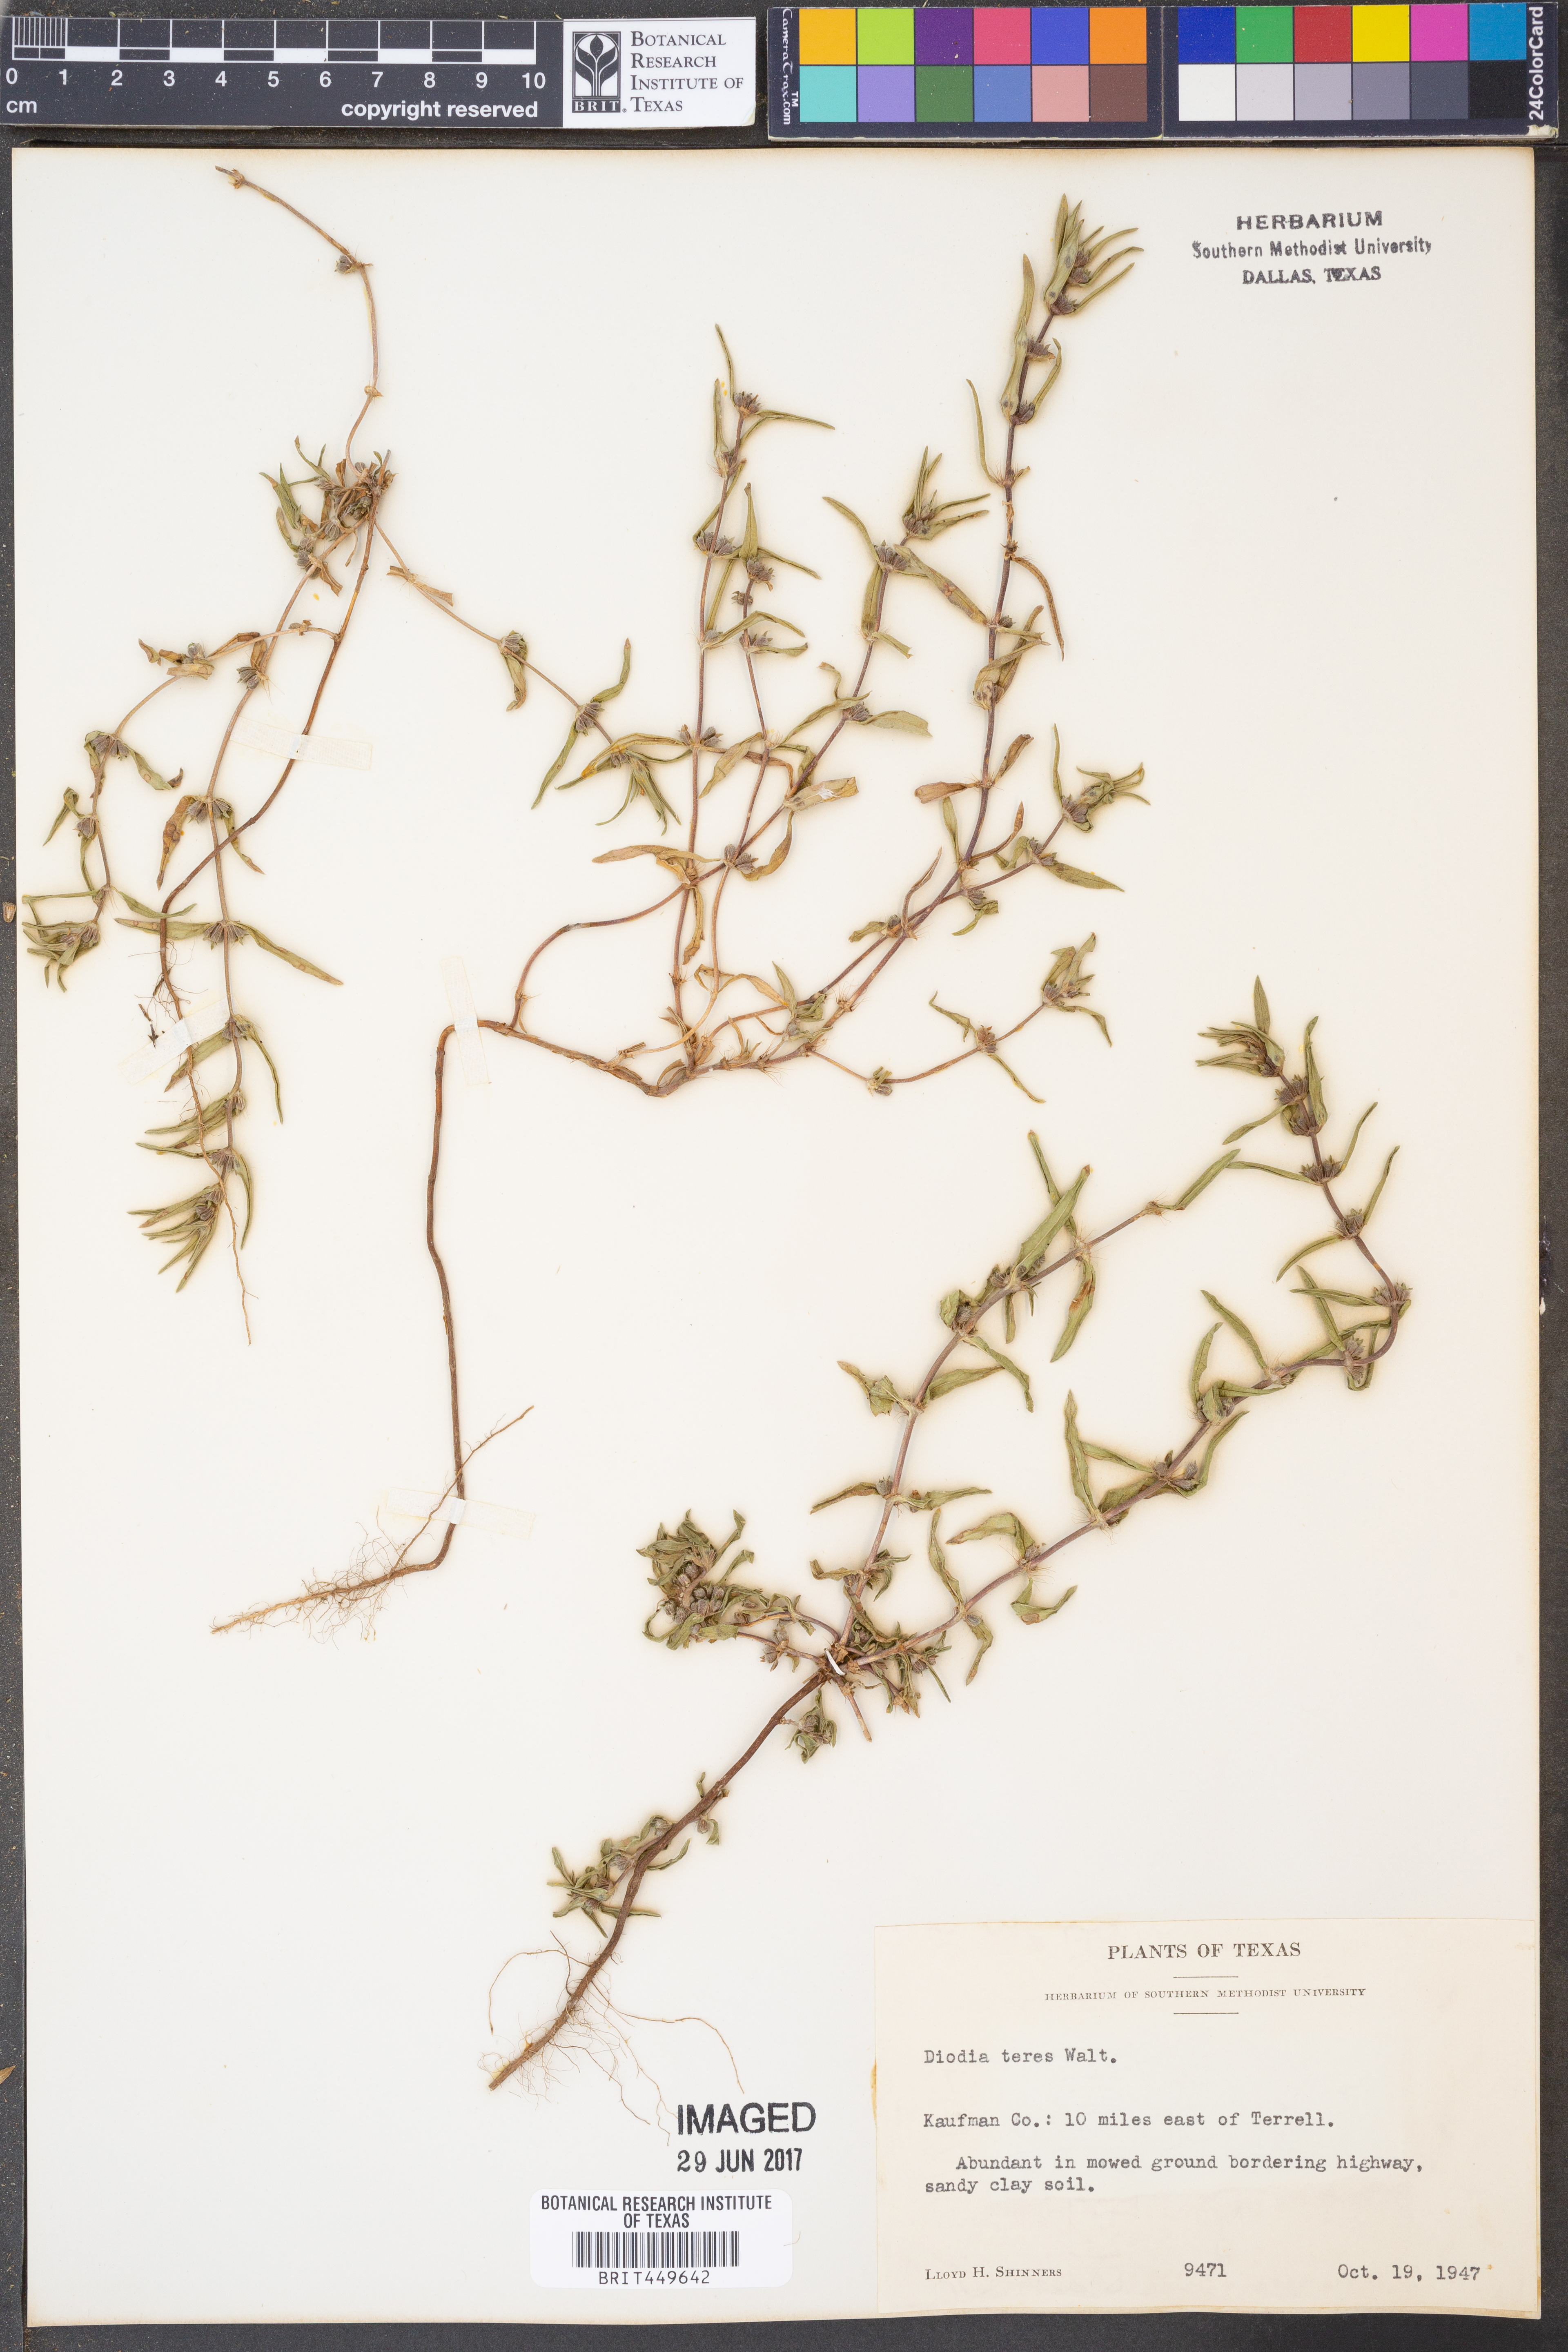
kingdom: Plantae
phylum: Tracheophyta
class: Magnoliopsida
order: Gentianales
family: Rubiaceae
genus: Hexasepalum
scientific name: Hexasepalum teres
